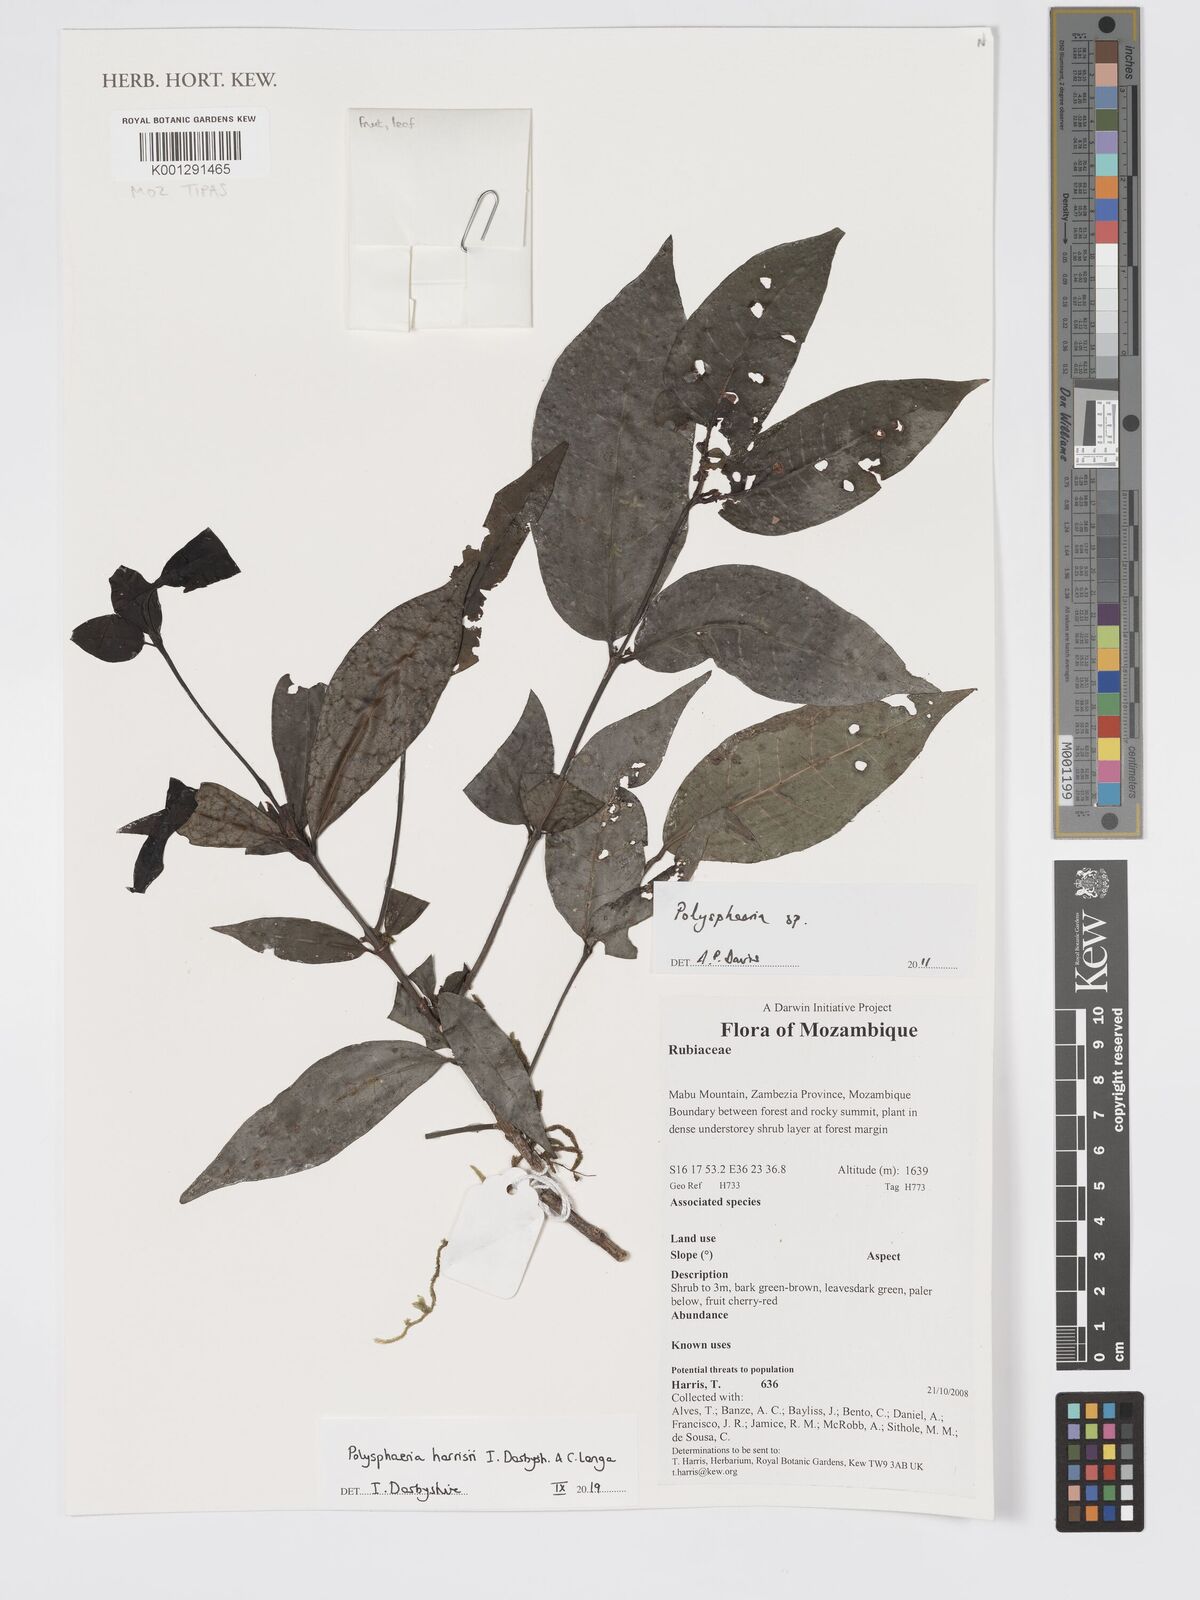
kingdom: Plantae
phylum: Tracheophyta
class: Magnoliopsida
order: Gentianales
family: Rubiaceae
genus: Polysphaeria
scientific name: Polysphaeria harrisii
